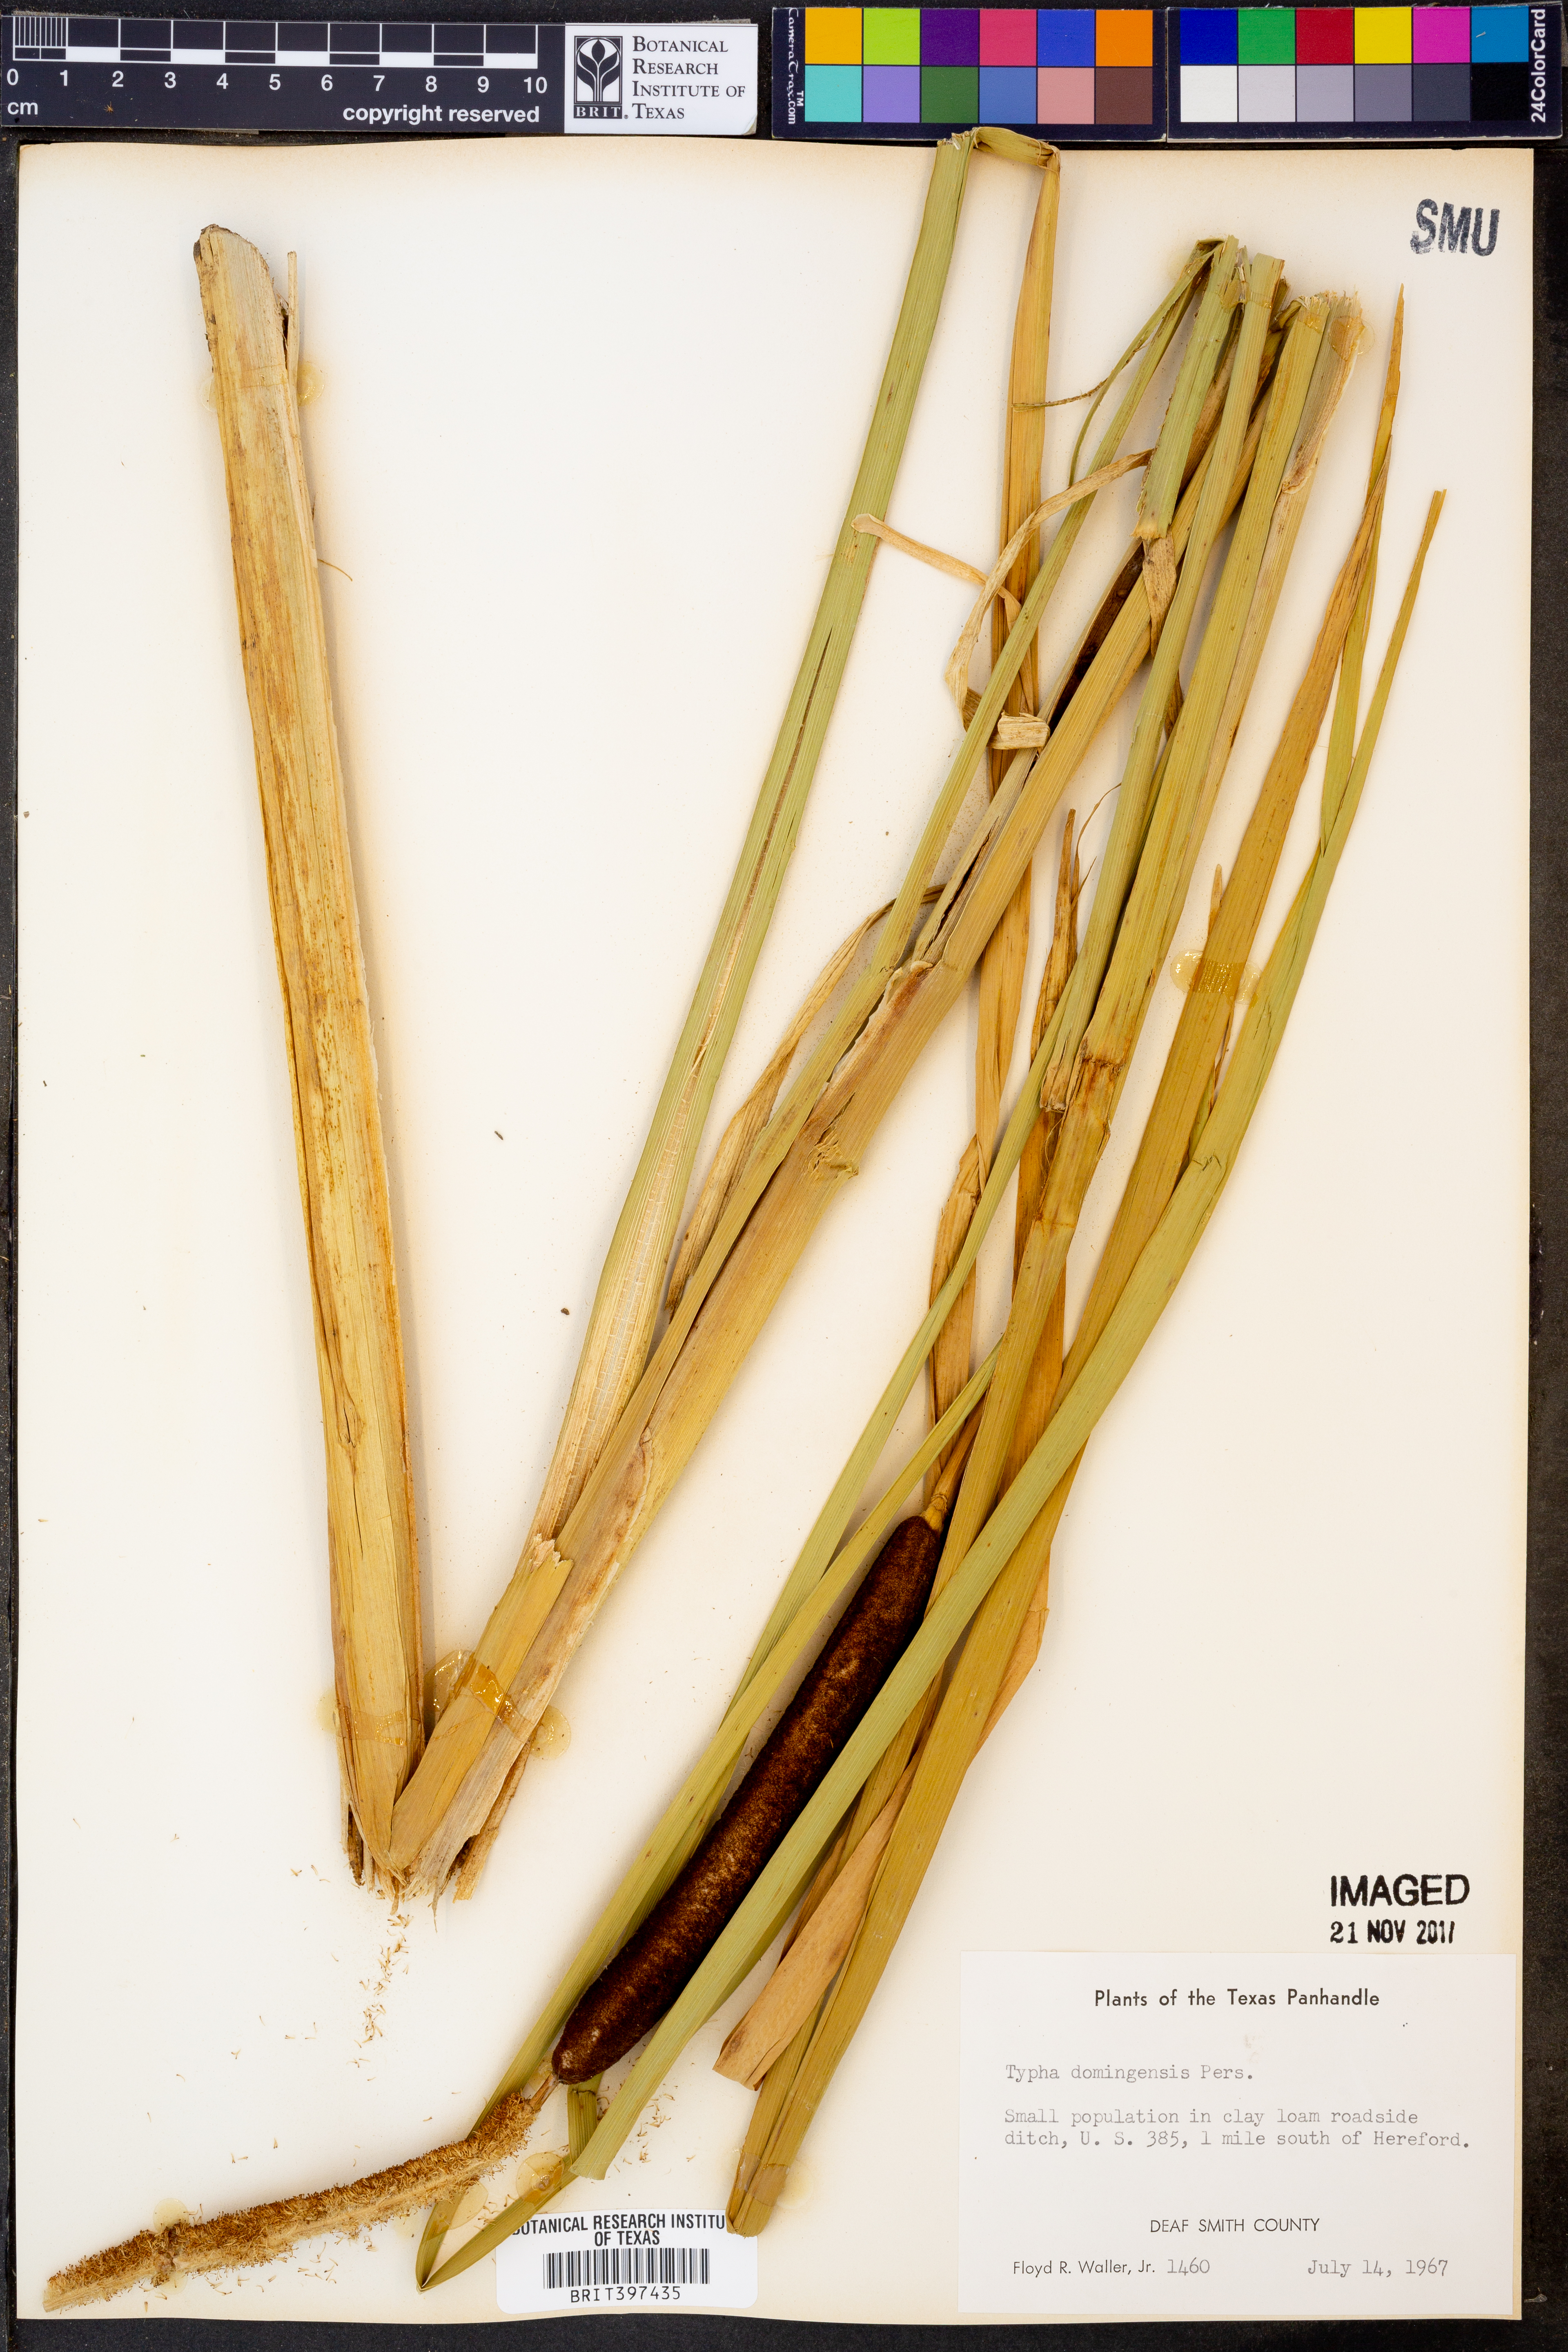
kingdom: Plantae
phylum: Tracheophyta
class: Liliopsida
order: Poales
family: Typhaceae
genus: Typha
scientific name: Typha domingensis
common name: Southern cattail
